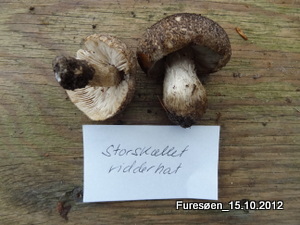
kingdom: Fungi
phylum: Basidiomycota
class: Agaricomycetes
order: Agaricales
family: Tricholomataceae
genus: Tricholoma
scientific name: Tricholoma atrosquamosum
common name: sortskællet ridderhat
